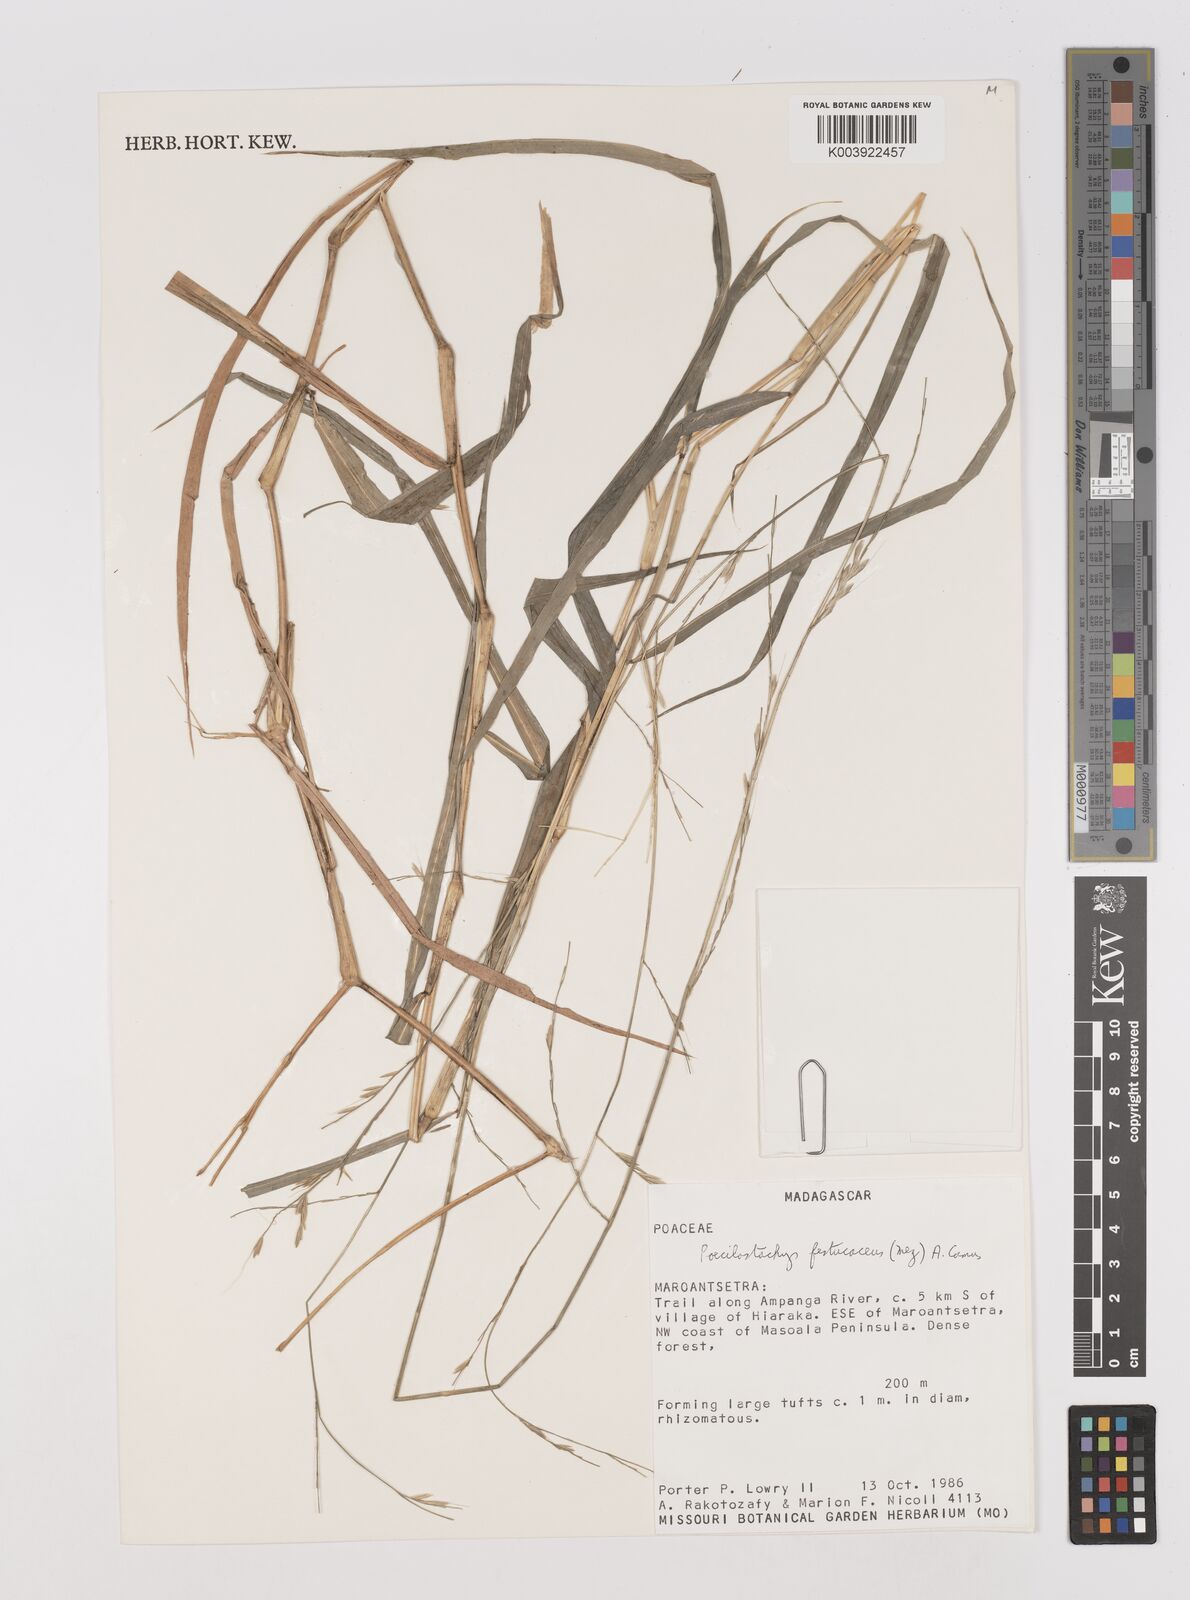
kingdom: Plantae
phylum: Tracheophyta
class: Liliopsida
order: Poales
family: Poaceae
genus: Poecilostachys
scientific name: Poecilostachys baronis
